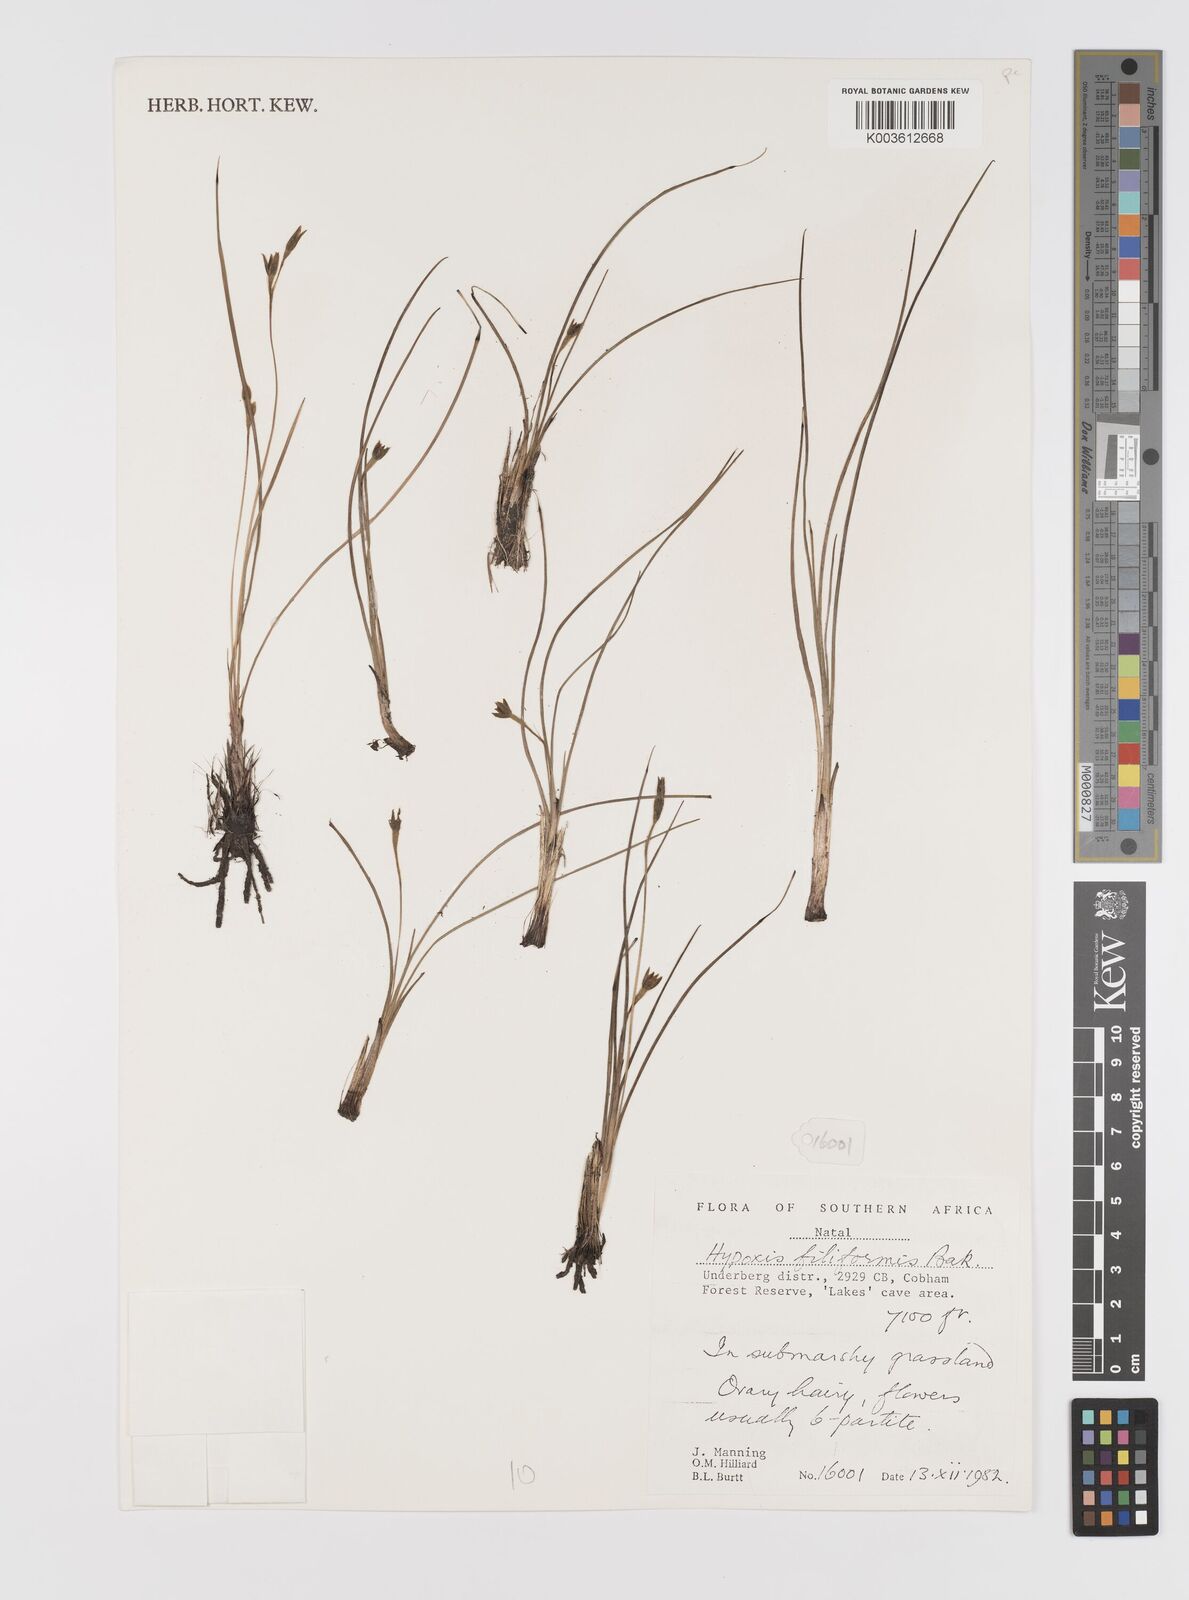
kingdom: Plantae
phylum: Tracheophyta
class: Liliopsida
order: Asparagales
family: Hypoxidaceae
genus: Hypoxis
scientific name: Hypoxis filiformis
